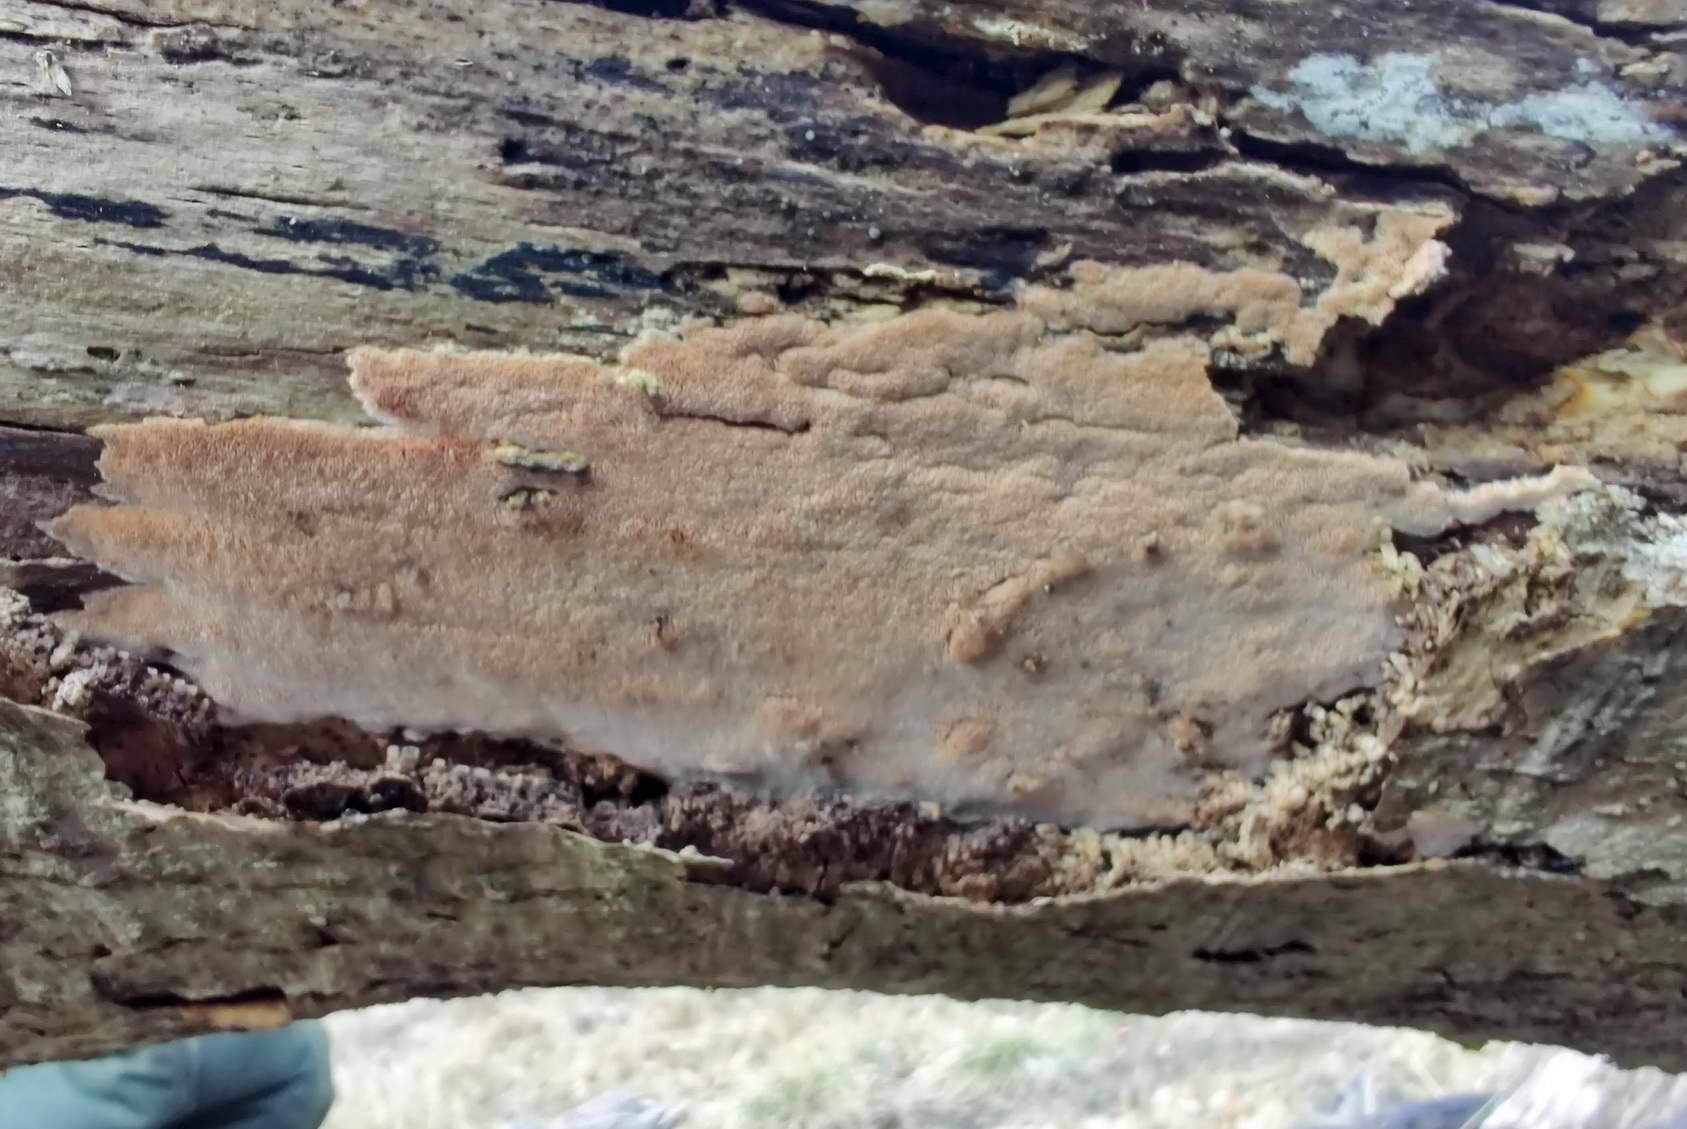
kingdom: Fungi
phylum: Basidiomycota
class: Agaricomycetes
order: Polyporales
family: Meruliaceae
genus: Mycoacia
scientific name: Mycoacia gilvescens
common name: rosa pastelporesvamp
